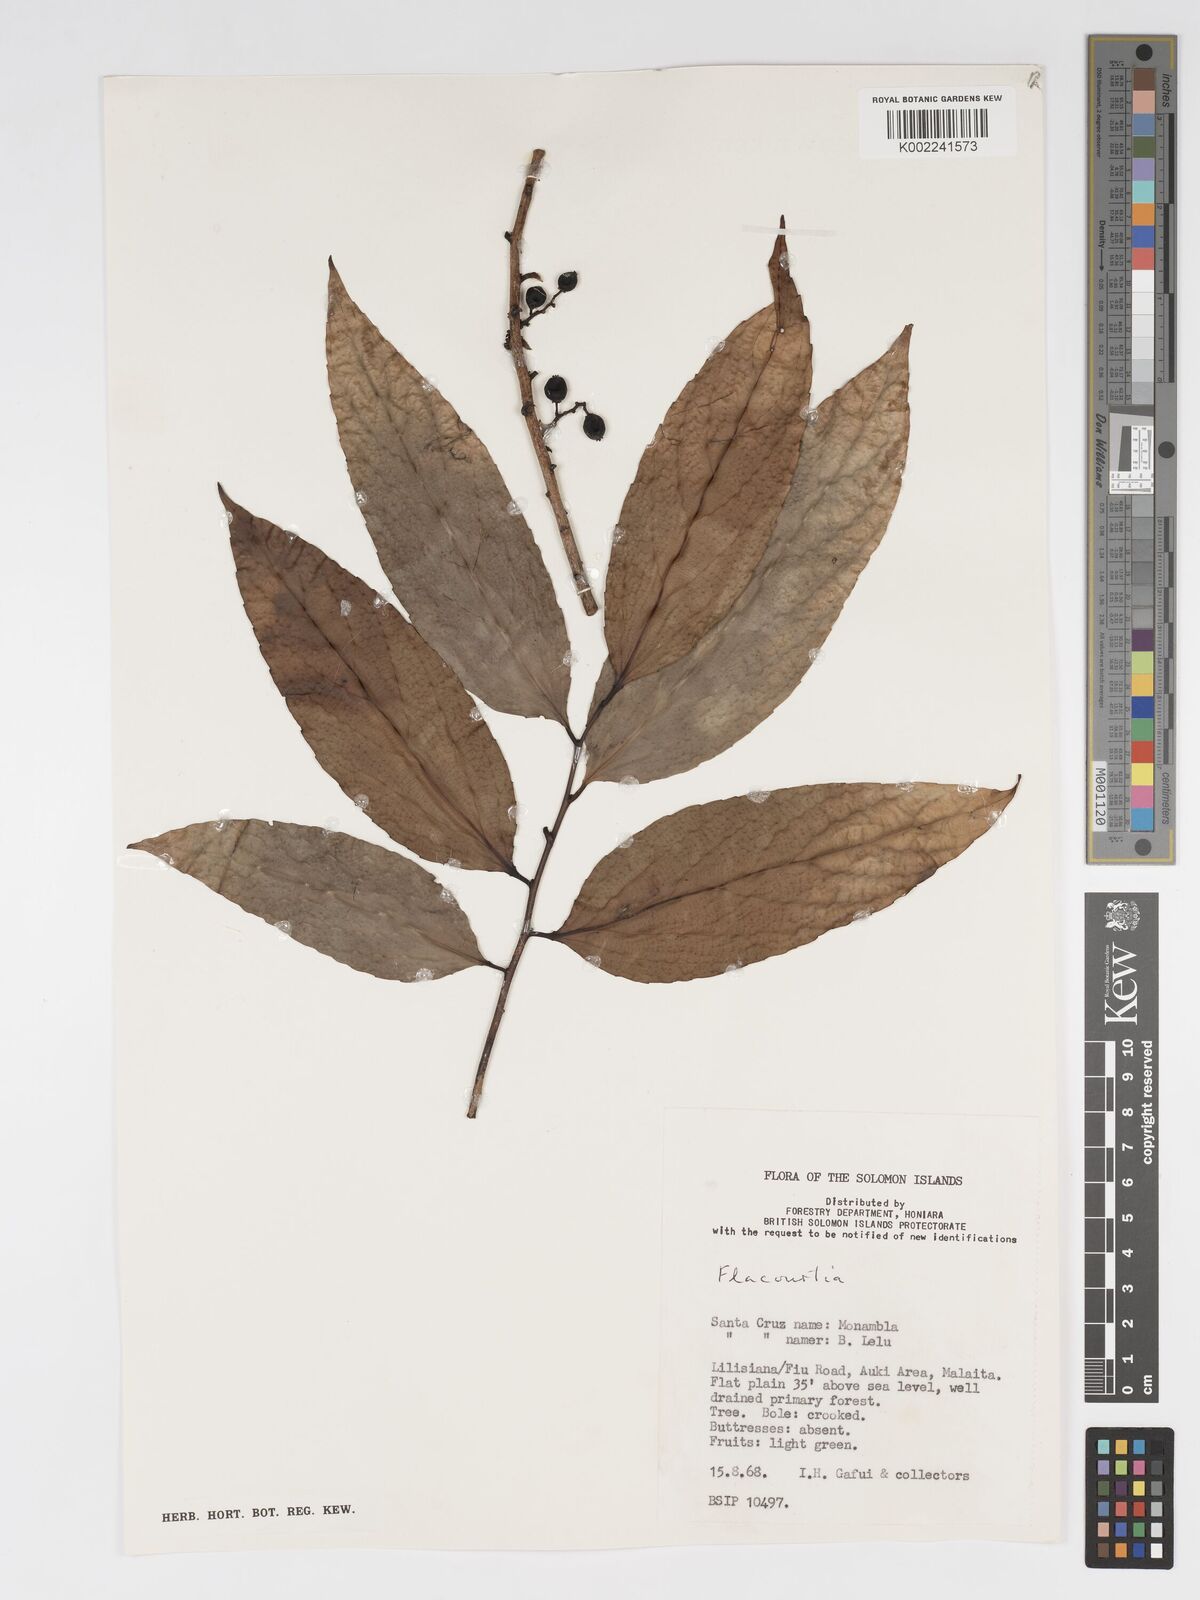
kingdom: Plantae
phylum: Tracheophyta
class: Magnoliopsida
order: Malpighiales
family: Salicaceae
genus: Flacourtia
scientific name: Flacourtia
